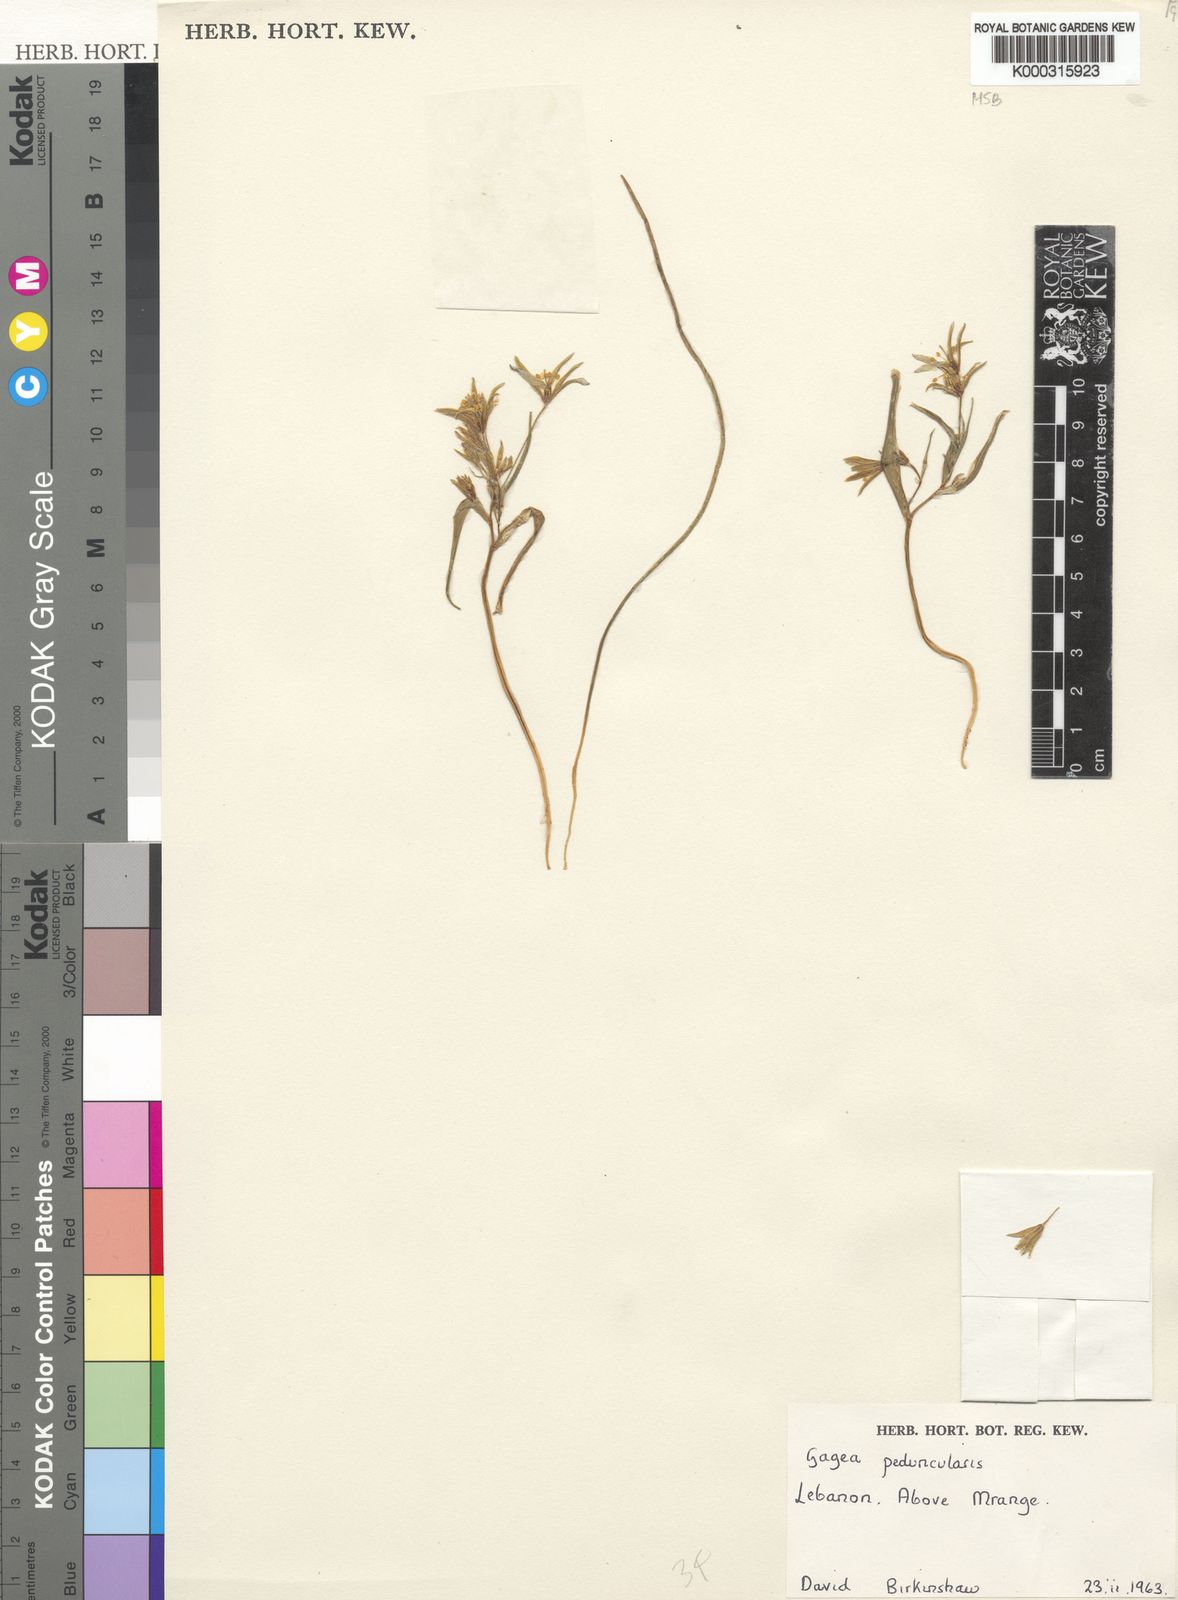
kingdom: Plantae
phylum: Tracheophyta
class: Liliopsida
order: Liliales
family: Liliaceae
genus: Gagea
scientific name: Gagea
